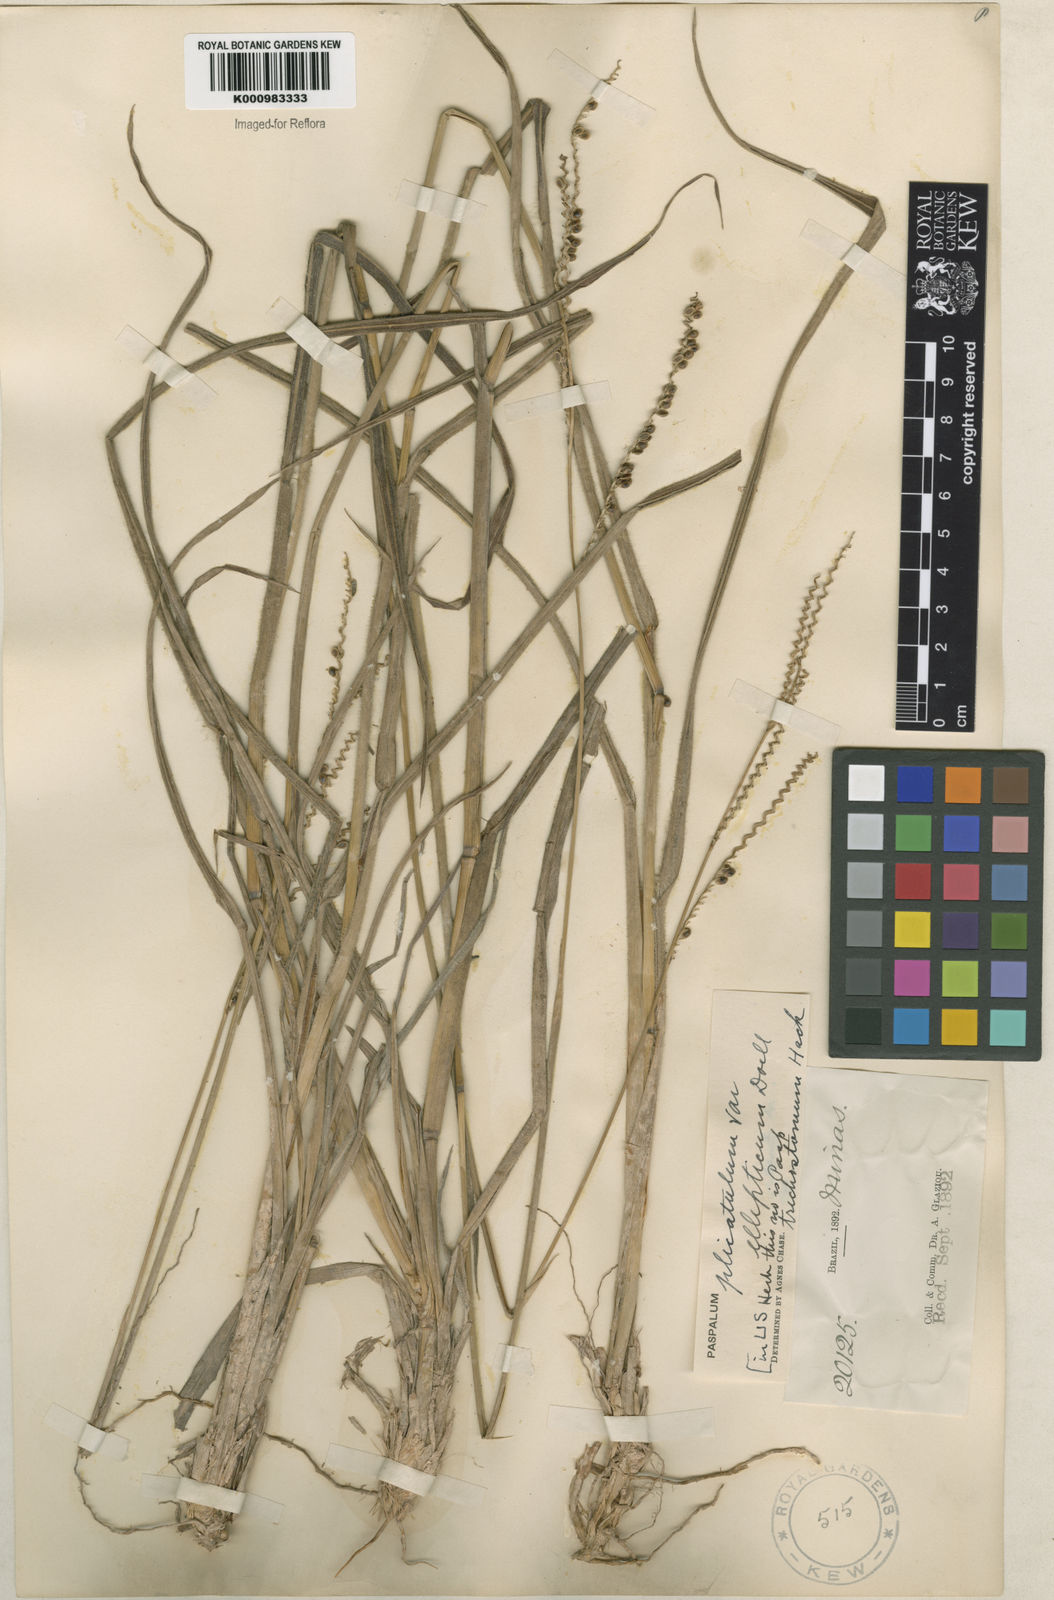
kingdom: Plantae
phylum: Tracheophyta
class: Liliopsida
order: Poales
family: Poaceae
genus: Paspalum
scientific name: Paspalum plicatulum
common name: Top paspalum
